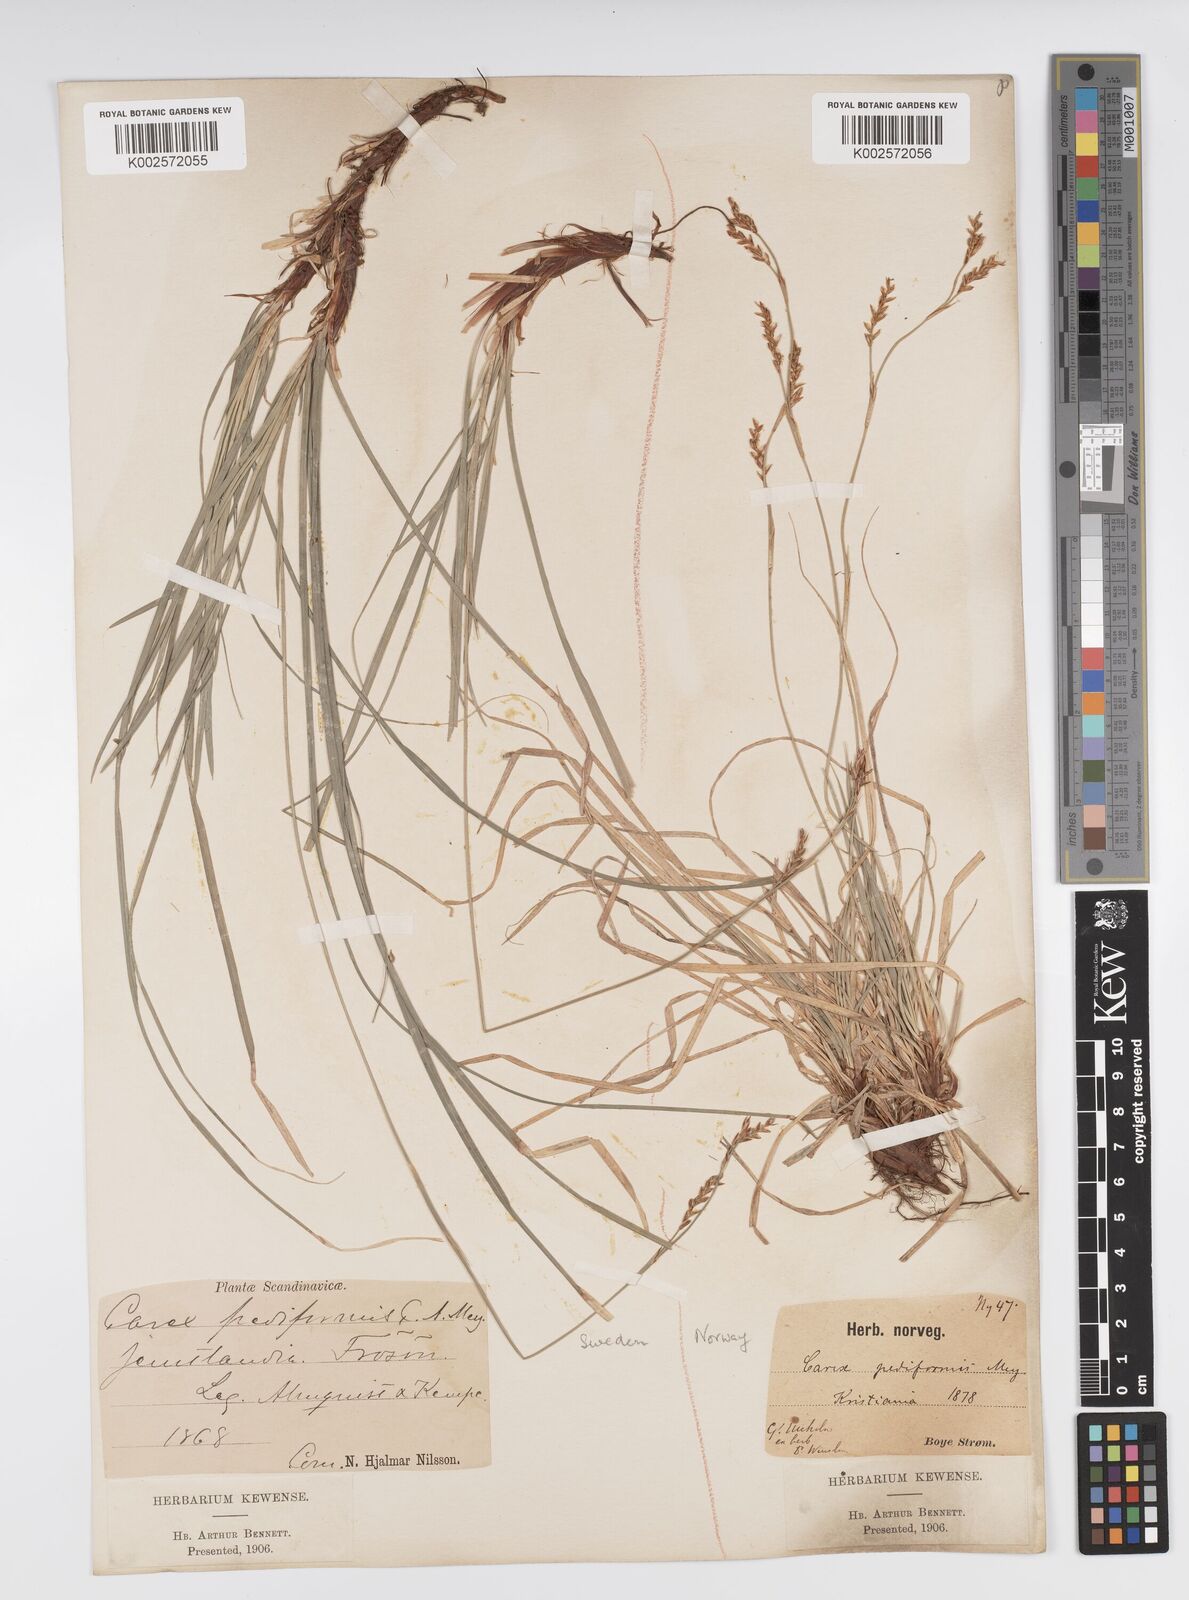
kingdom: Plantae
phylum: Tracheophyta
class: Liliopsida
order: Poales
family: Cyperaceae
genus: Carex
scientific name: Carex pediformis
